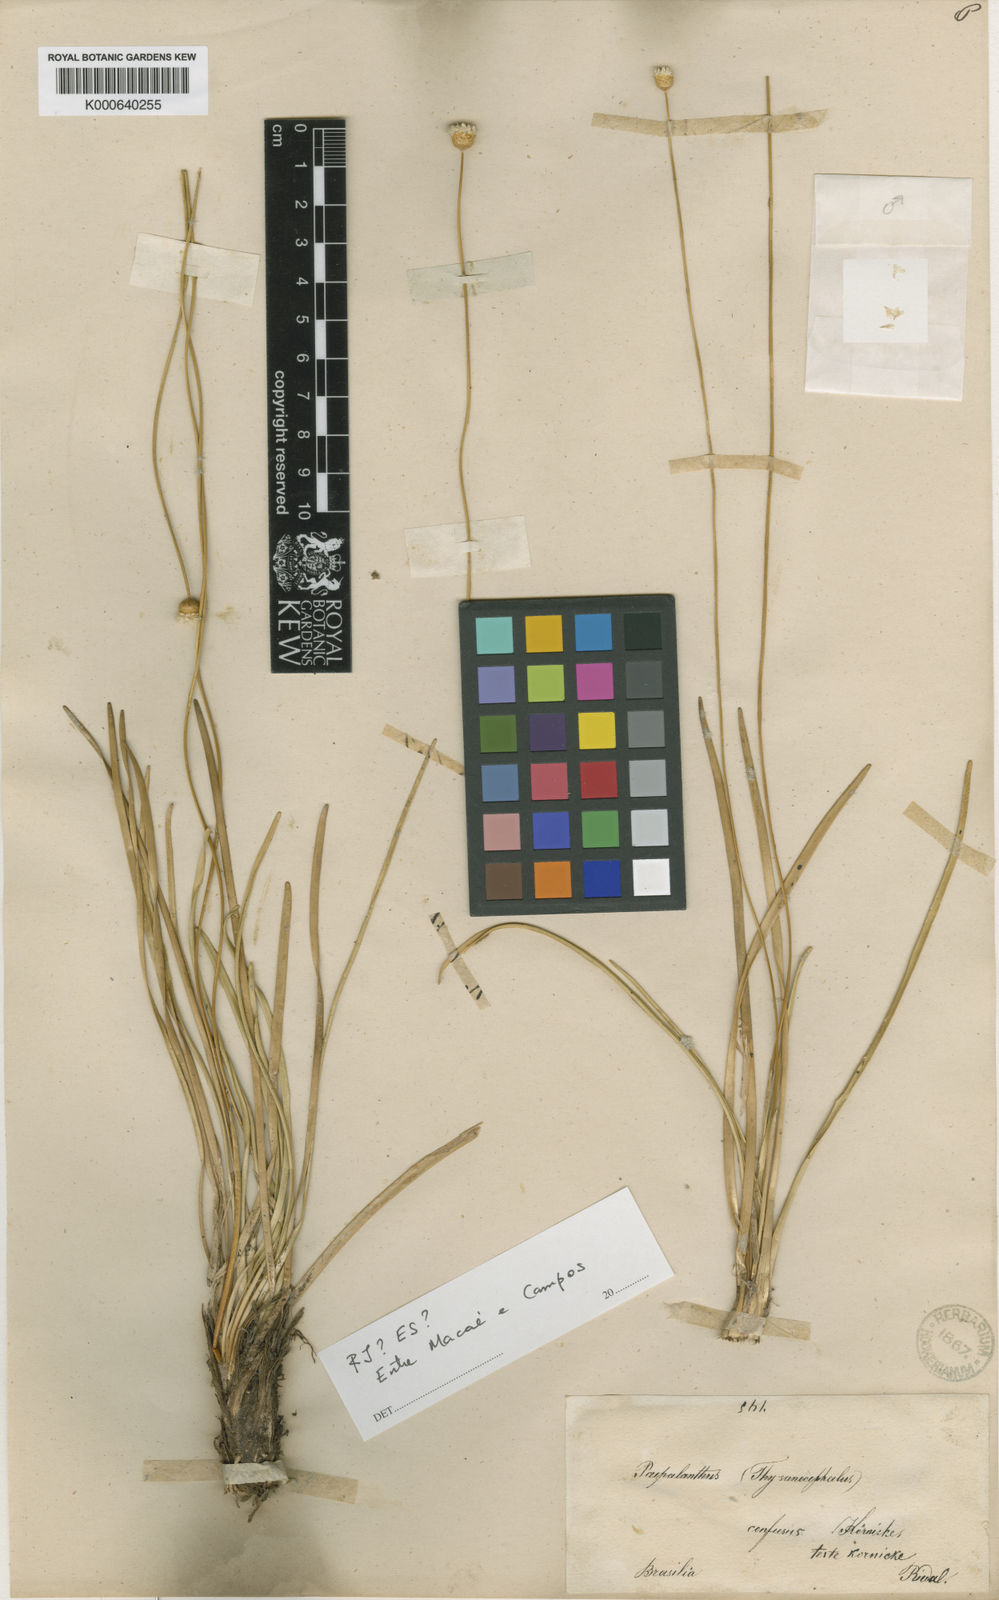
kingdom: Plantae
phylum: Tracheophyta
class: Liliopsida
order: Poales
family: Eriocaulaceae
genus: Comanthera
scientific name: Comanthera centauroides
